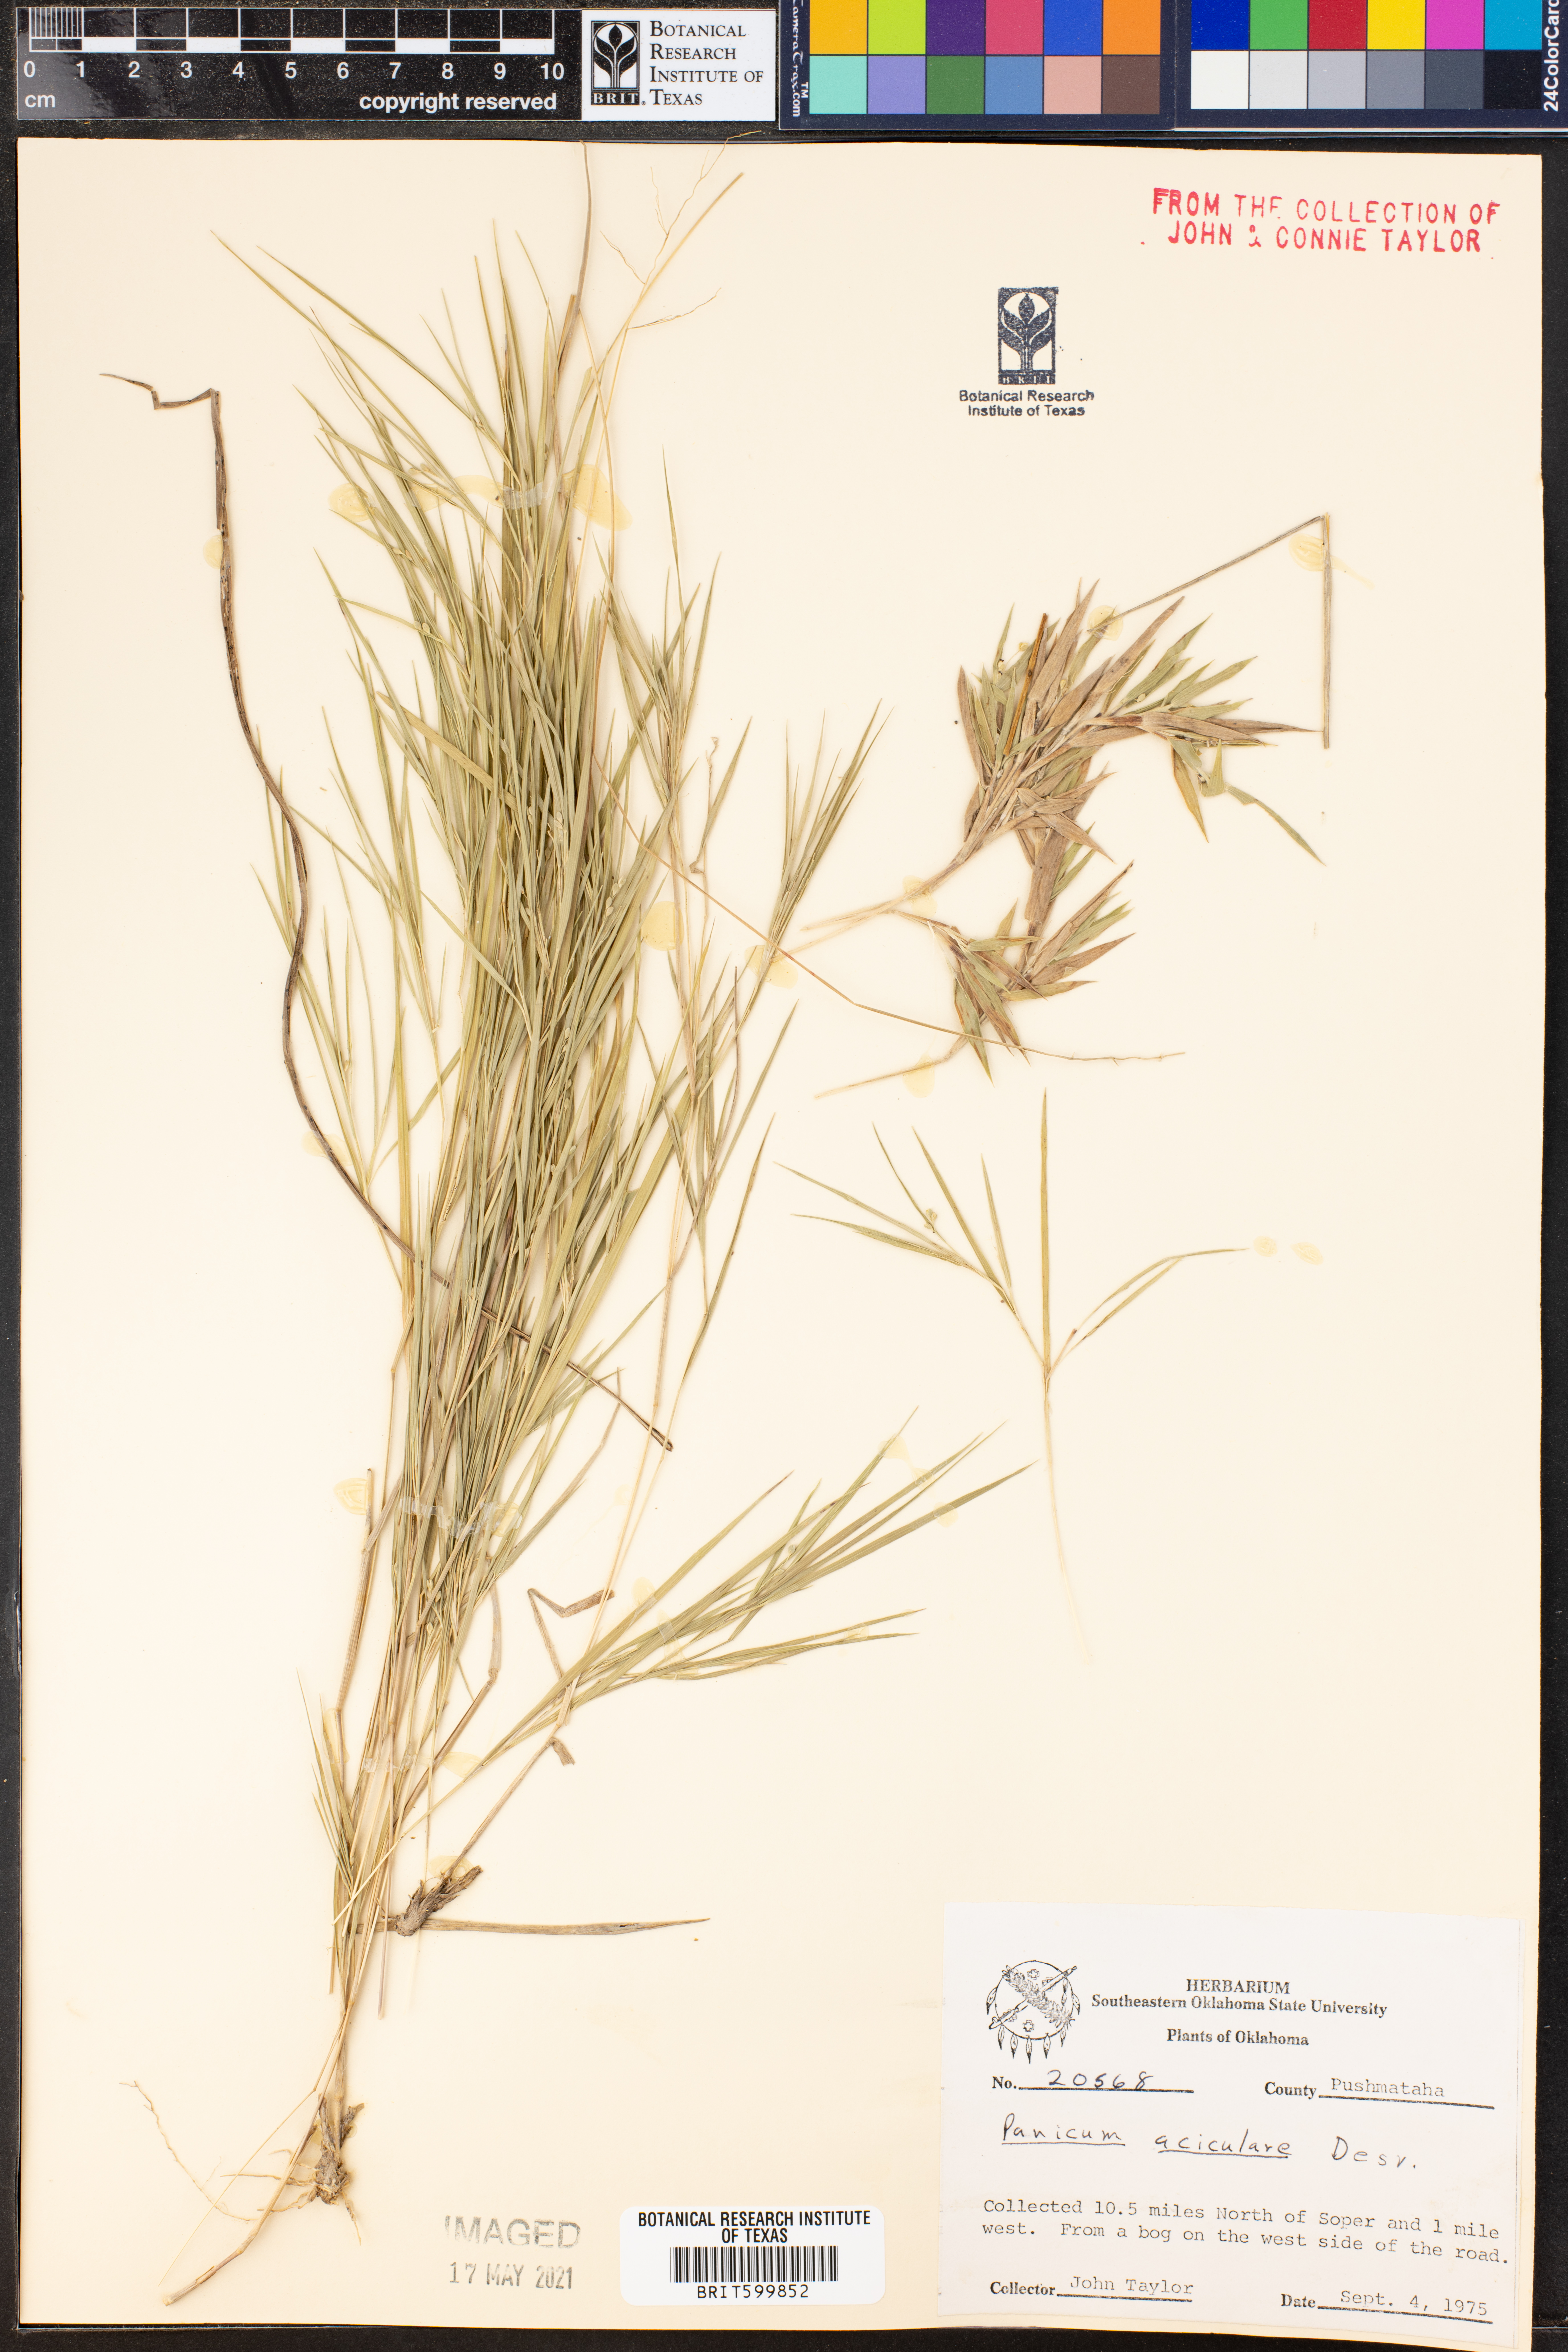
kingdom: Plantae
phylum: Tracheophyta
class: Liliopsida
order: Poales
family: Poaceae
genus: Dichanthelium
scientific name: Dichanthelium aciculare
